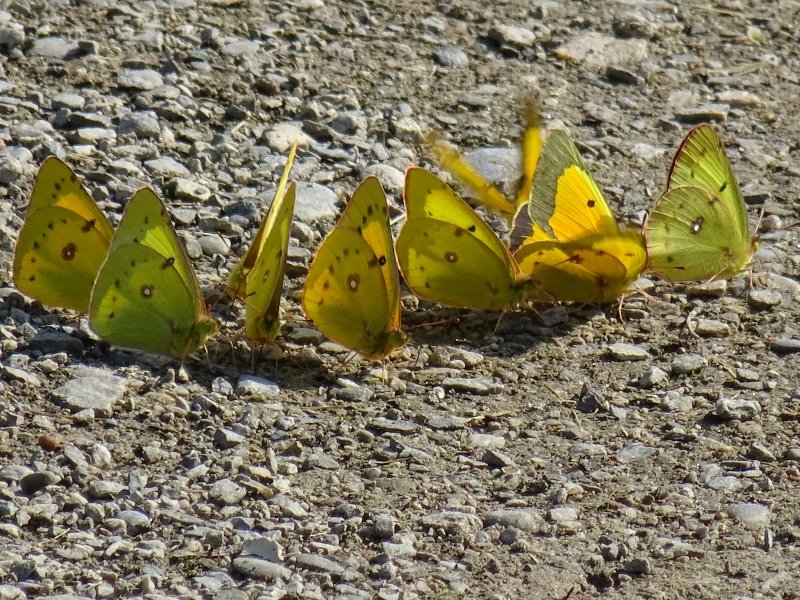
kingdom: Animalia
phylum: Arthropoda
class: Insecta
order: Lepidoptera
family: Pieridae
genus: Colias
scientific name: Colias eurytheme
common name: Orange Sulphur
